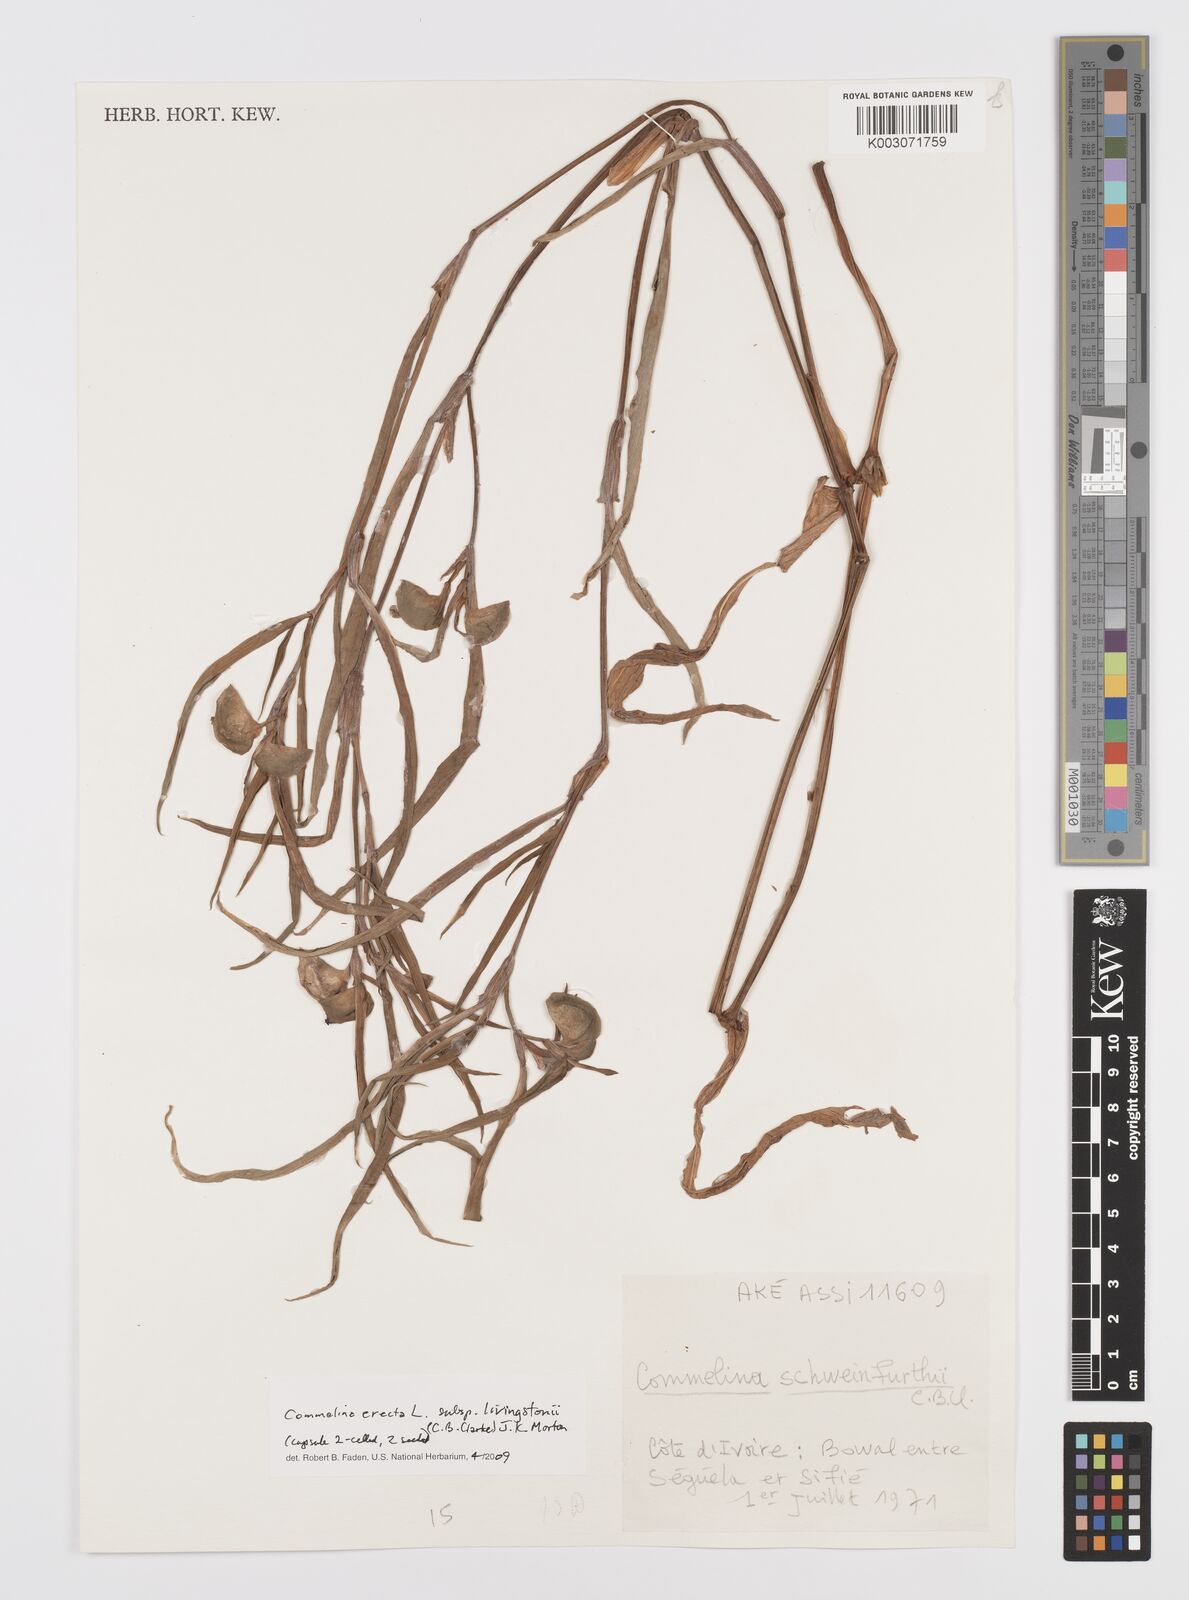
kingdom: Plantae
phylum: Tracheophyta
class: Liliopsida
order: Commelinales
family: Commelinaceae
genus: Commelina
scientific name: Commelina erecta
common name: Blousel blommetjie
